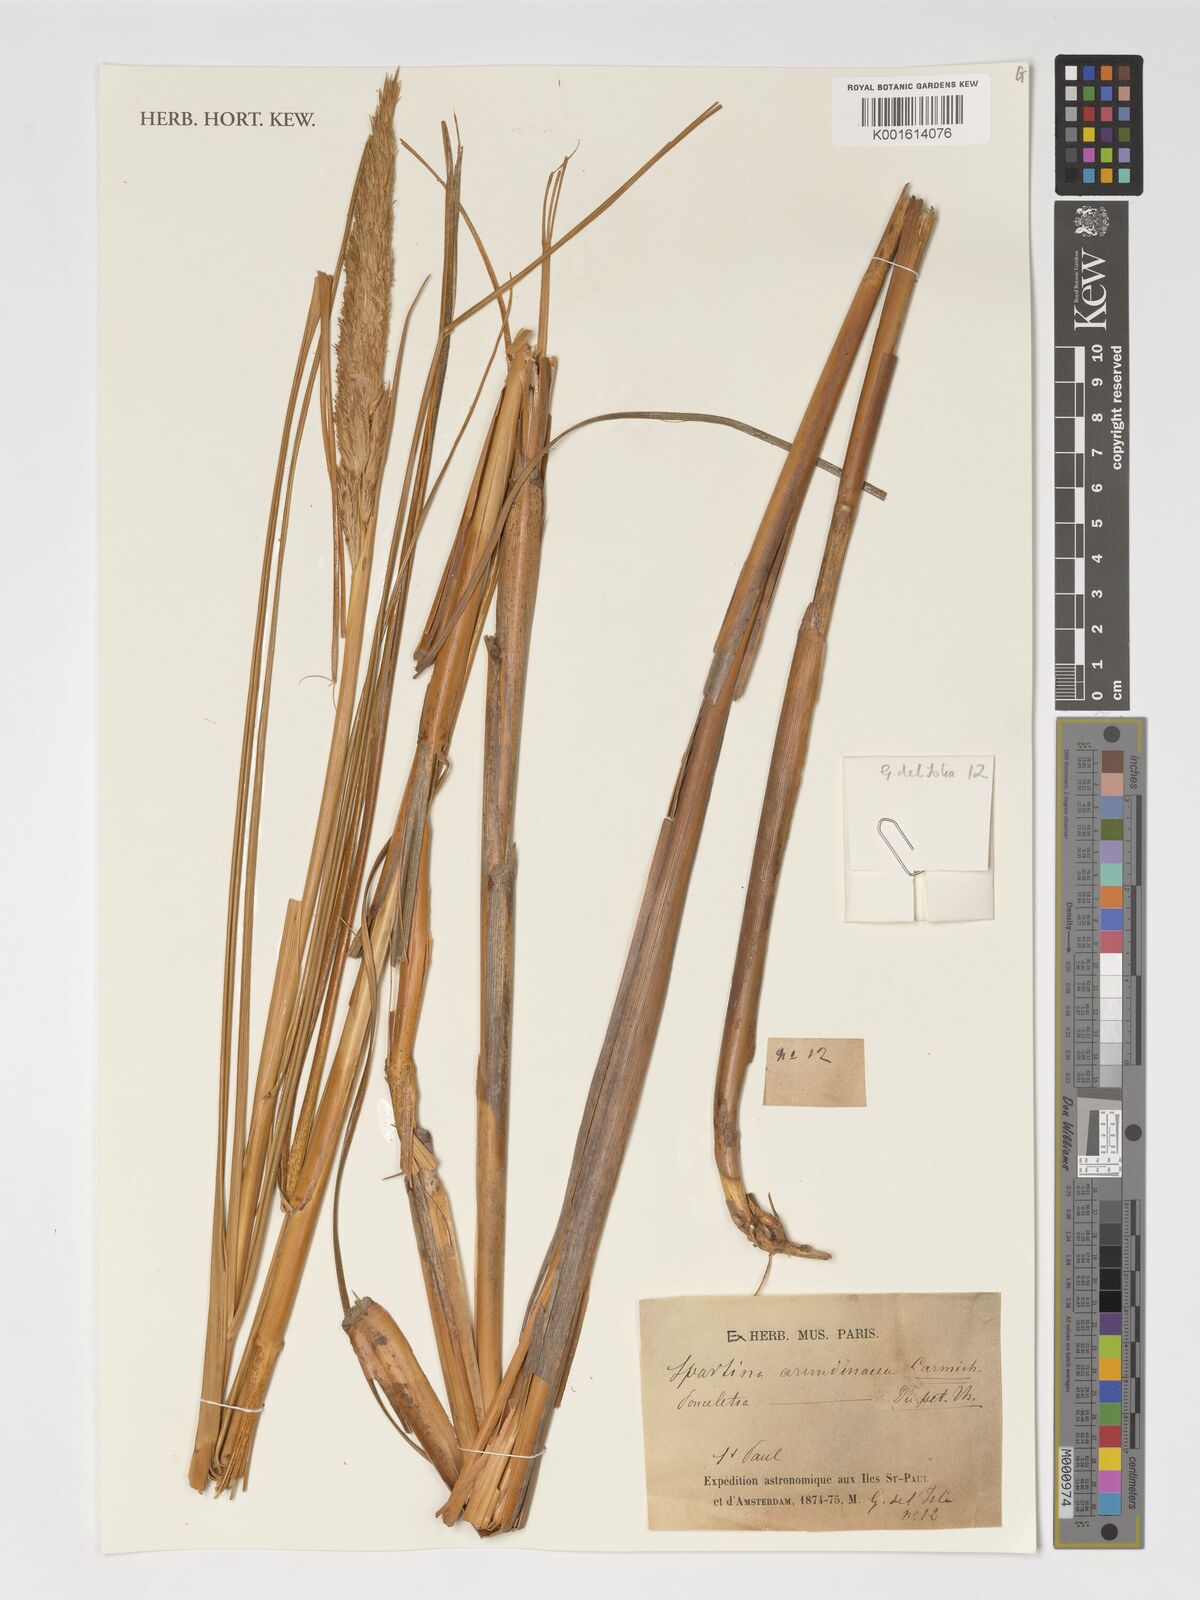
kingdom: Plantae
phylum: Tracheophyta
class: Liliopsida
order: Poales
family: Poaceae
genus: Sporobolus
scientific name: Sporobolus mobberleyanus
